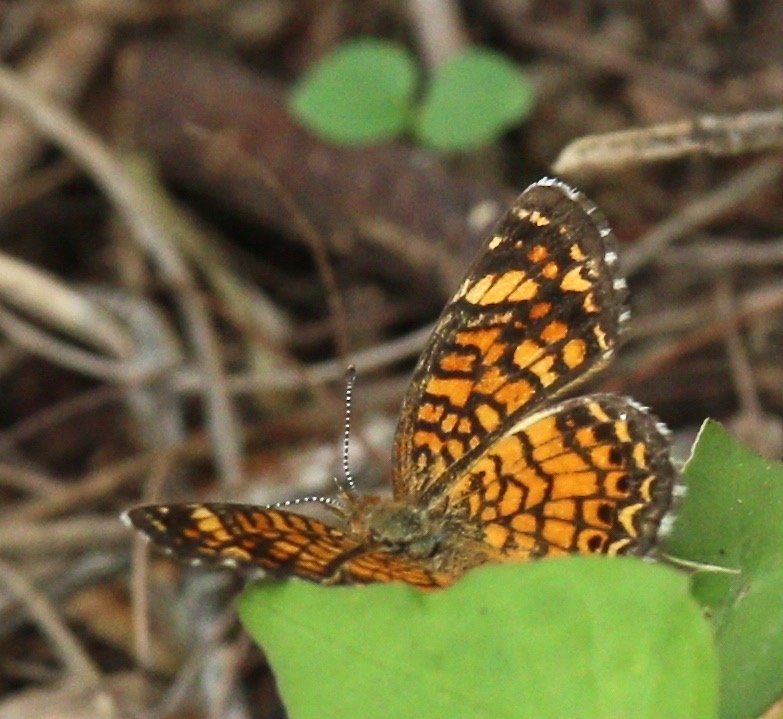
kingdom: Animalia
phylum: Arthropoda
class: Insecta
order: Lepidoptera
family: Nymphalidae
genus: Phyciodes
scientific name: Phyciodes vesta
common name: Vesta Crescent
